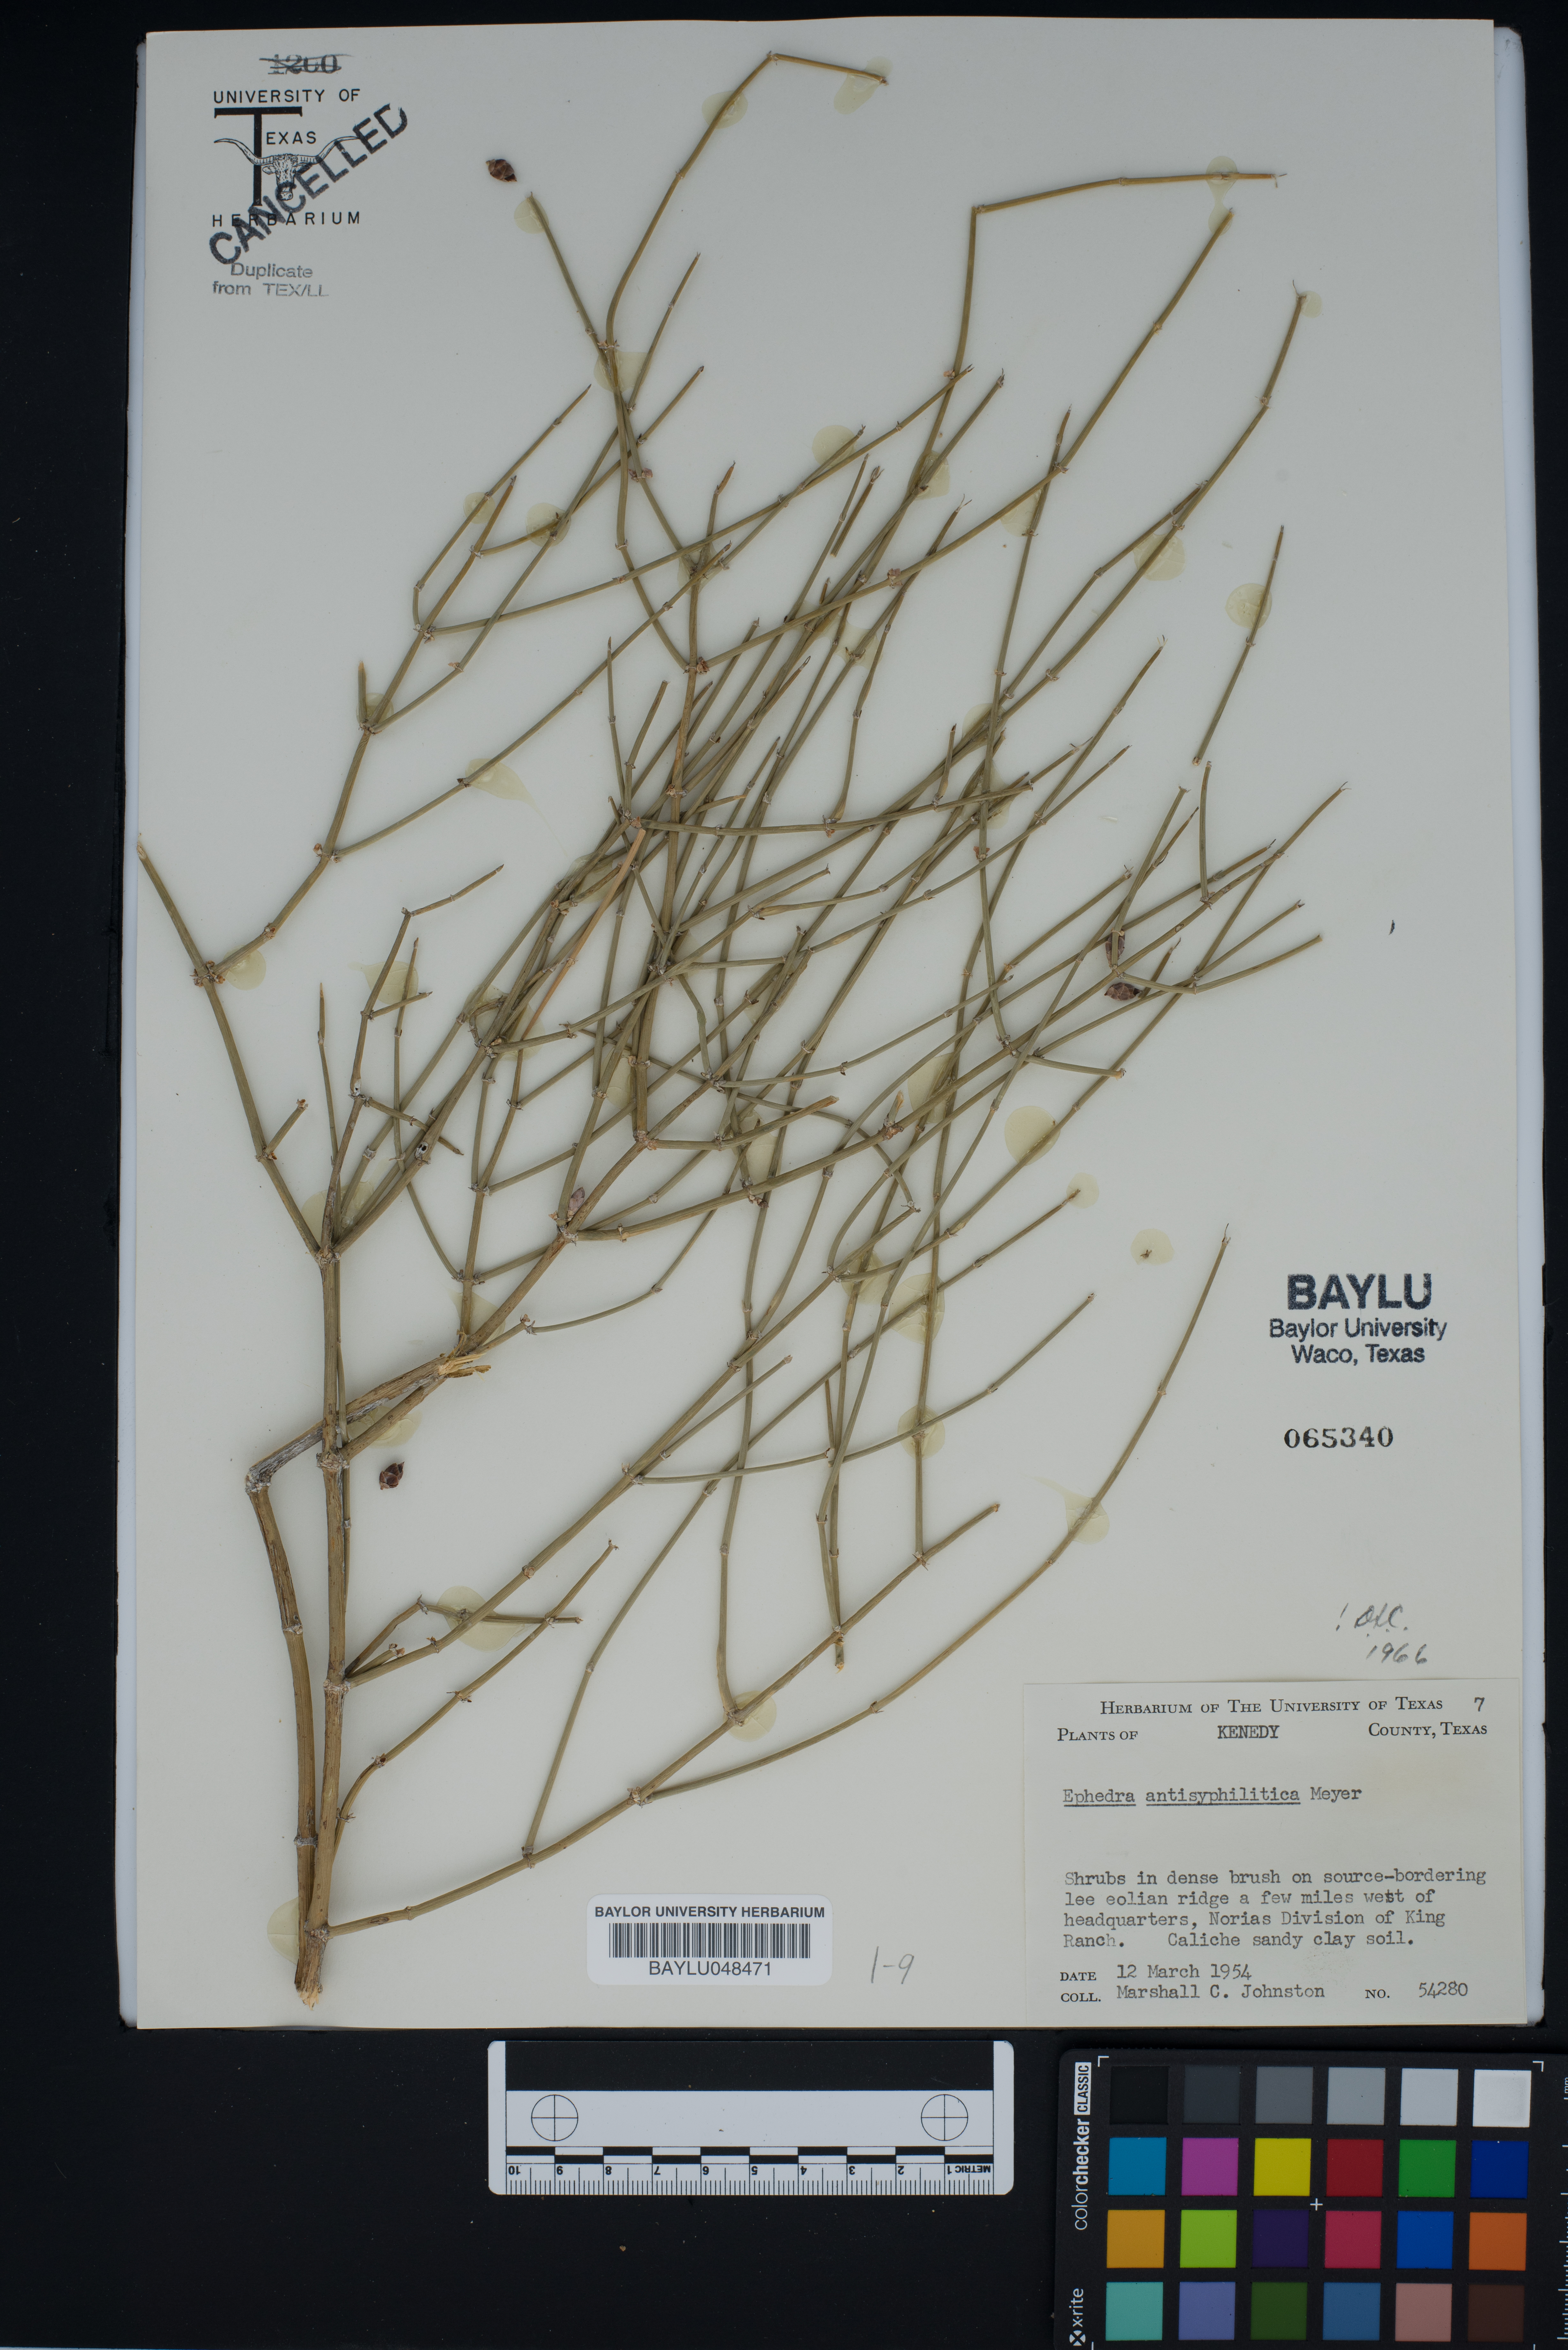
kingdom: Plantae
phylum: Tracheophyta
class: Gnetopsida
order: Ephedrales
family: Ephedraceae
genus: Ephedra
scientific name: Ephedra antisyphilitica
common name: Clipweed
